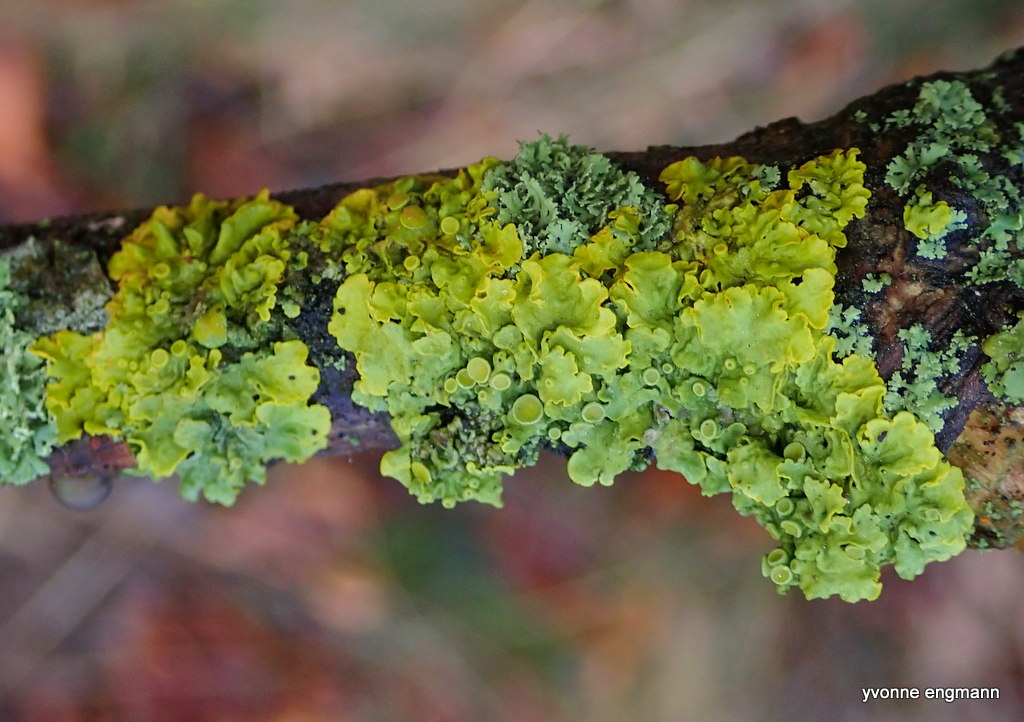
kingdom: Fungi
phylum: Ascomycota
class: Lecanoromycetes
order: Teloschistales
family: Teloschistaceae
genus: Xanthoria
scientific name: Xanthoria parietina
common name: almindelig væggelav
